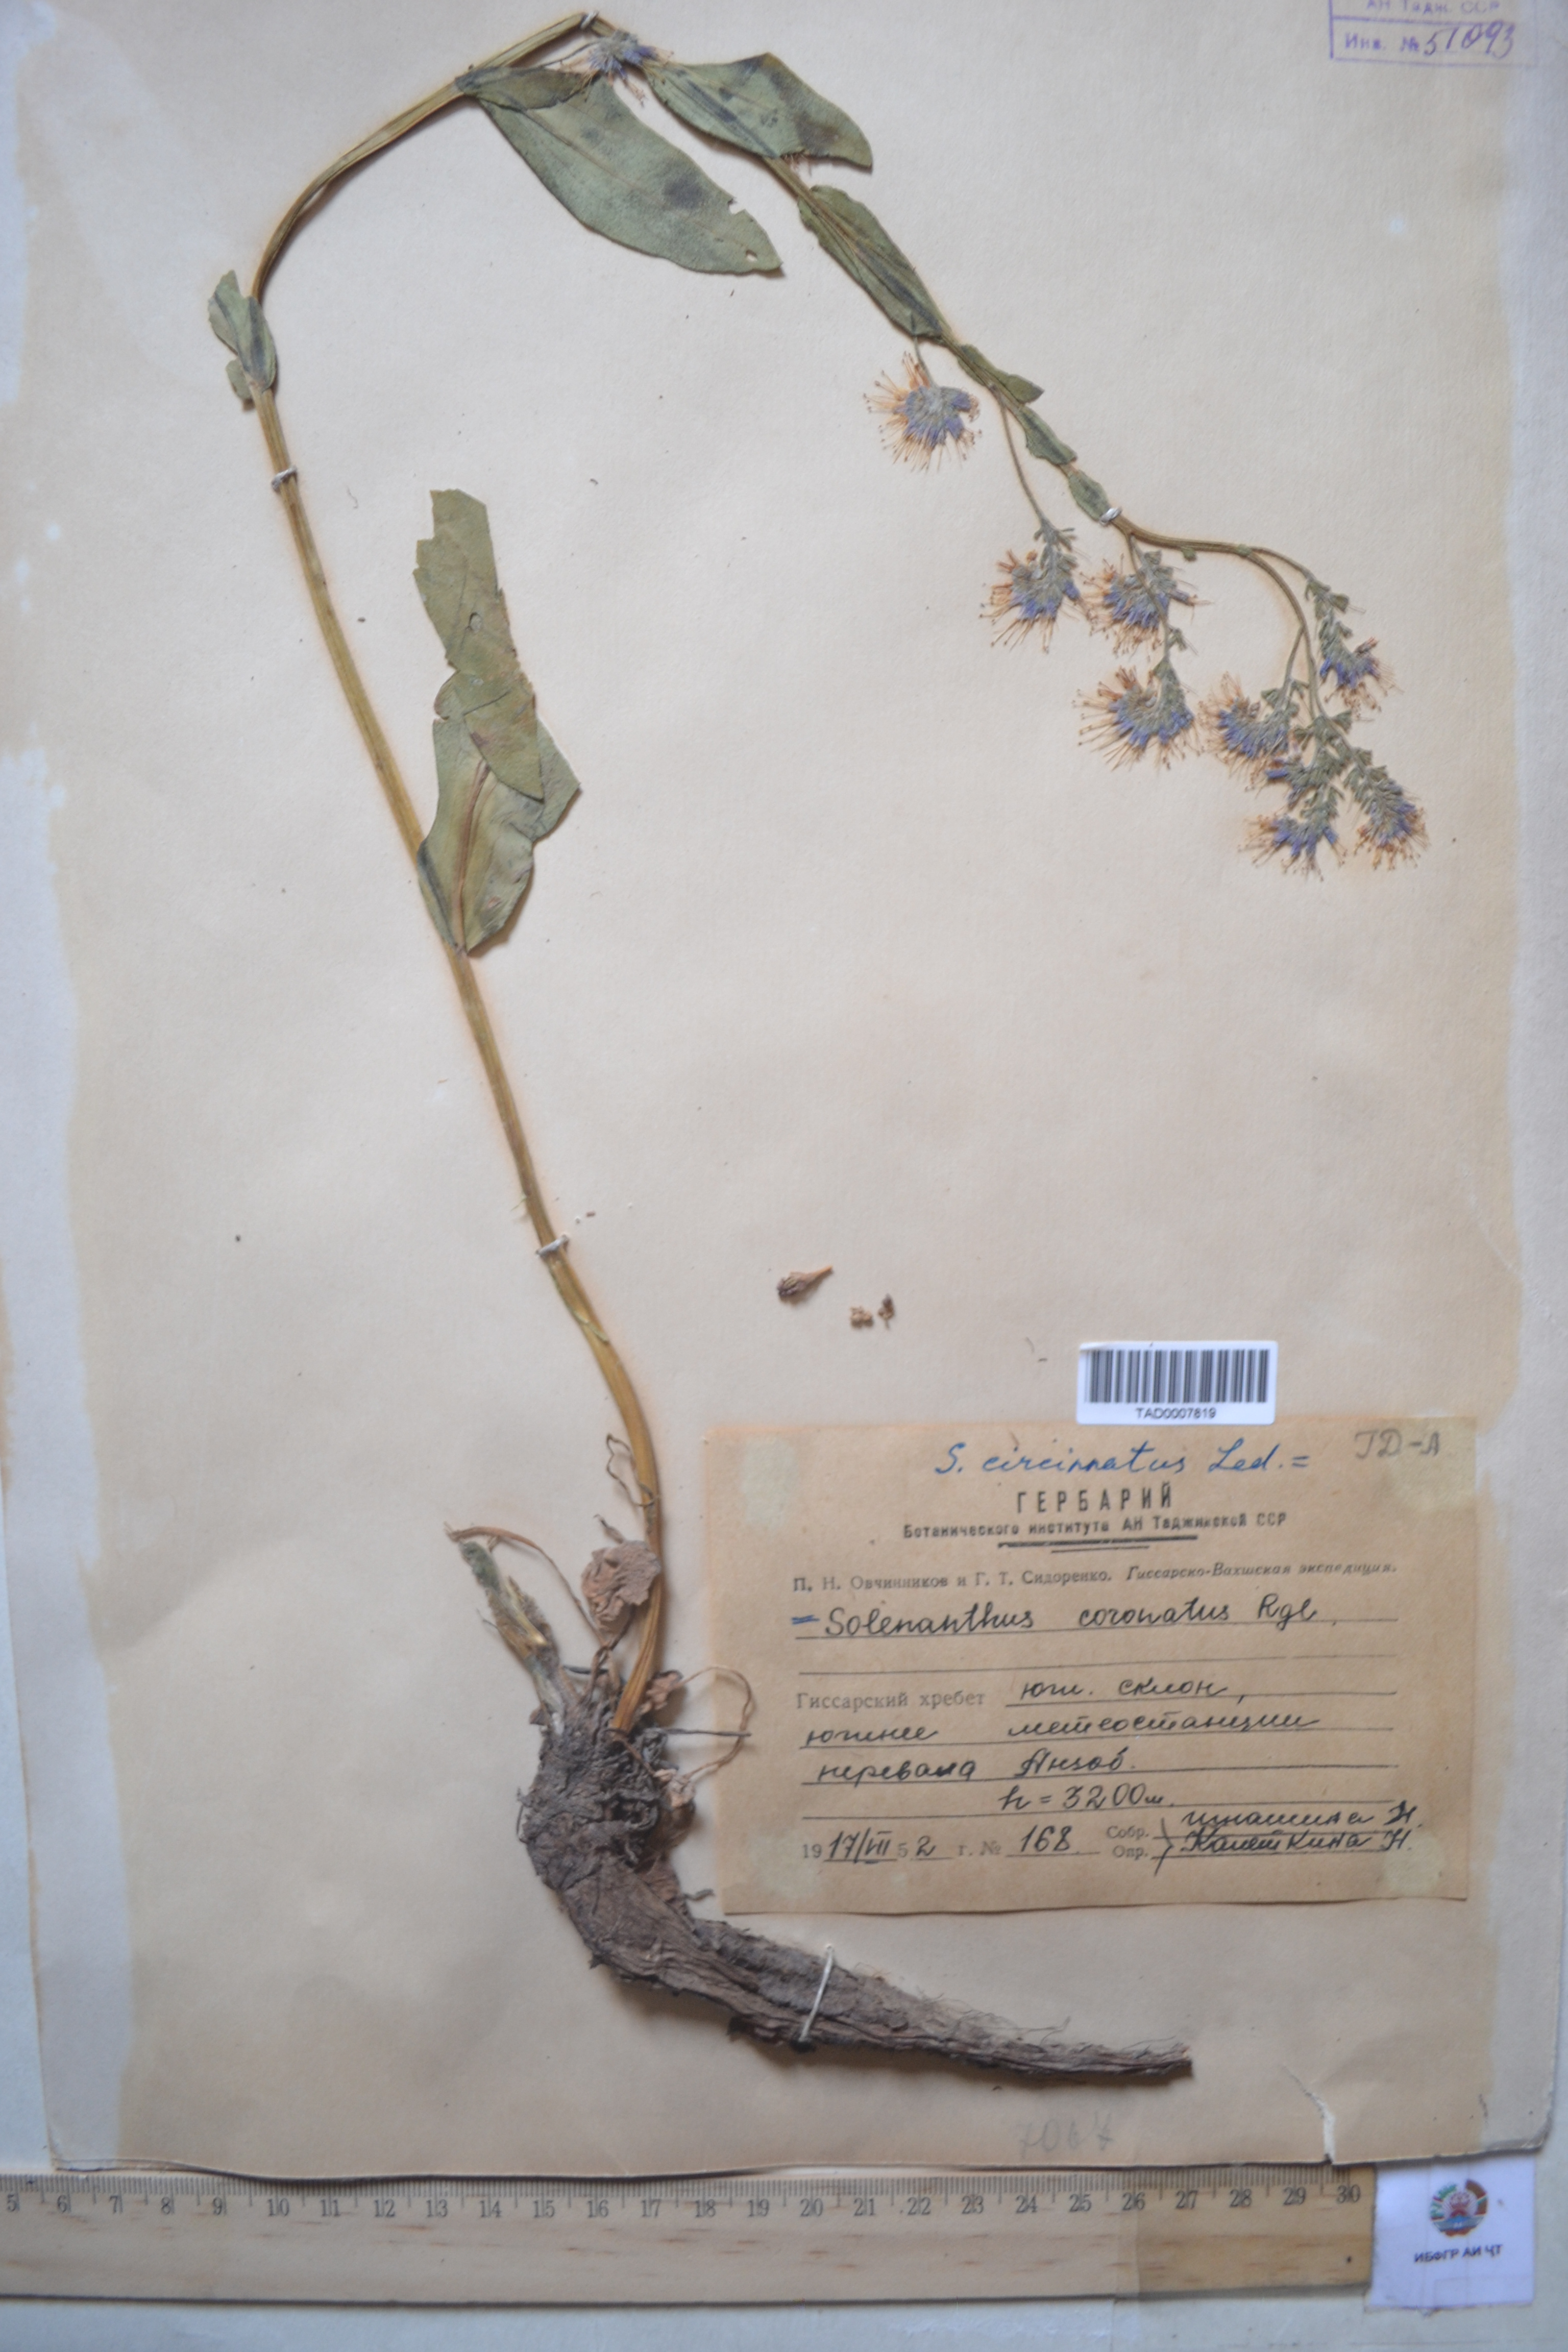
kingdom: Plantae
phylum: Tracheophyta
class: Magnoliopsida
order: Boraginales
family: Boraginaceae
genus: Solenanthus
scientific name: Solenanthus circinnatus
